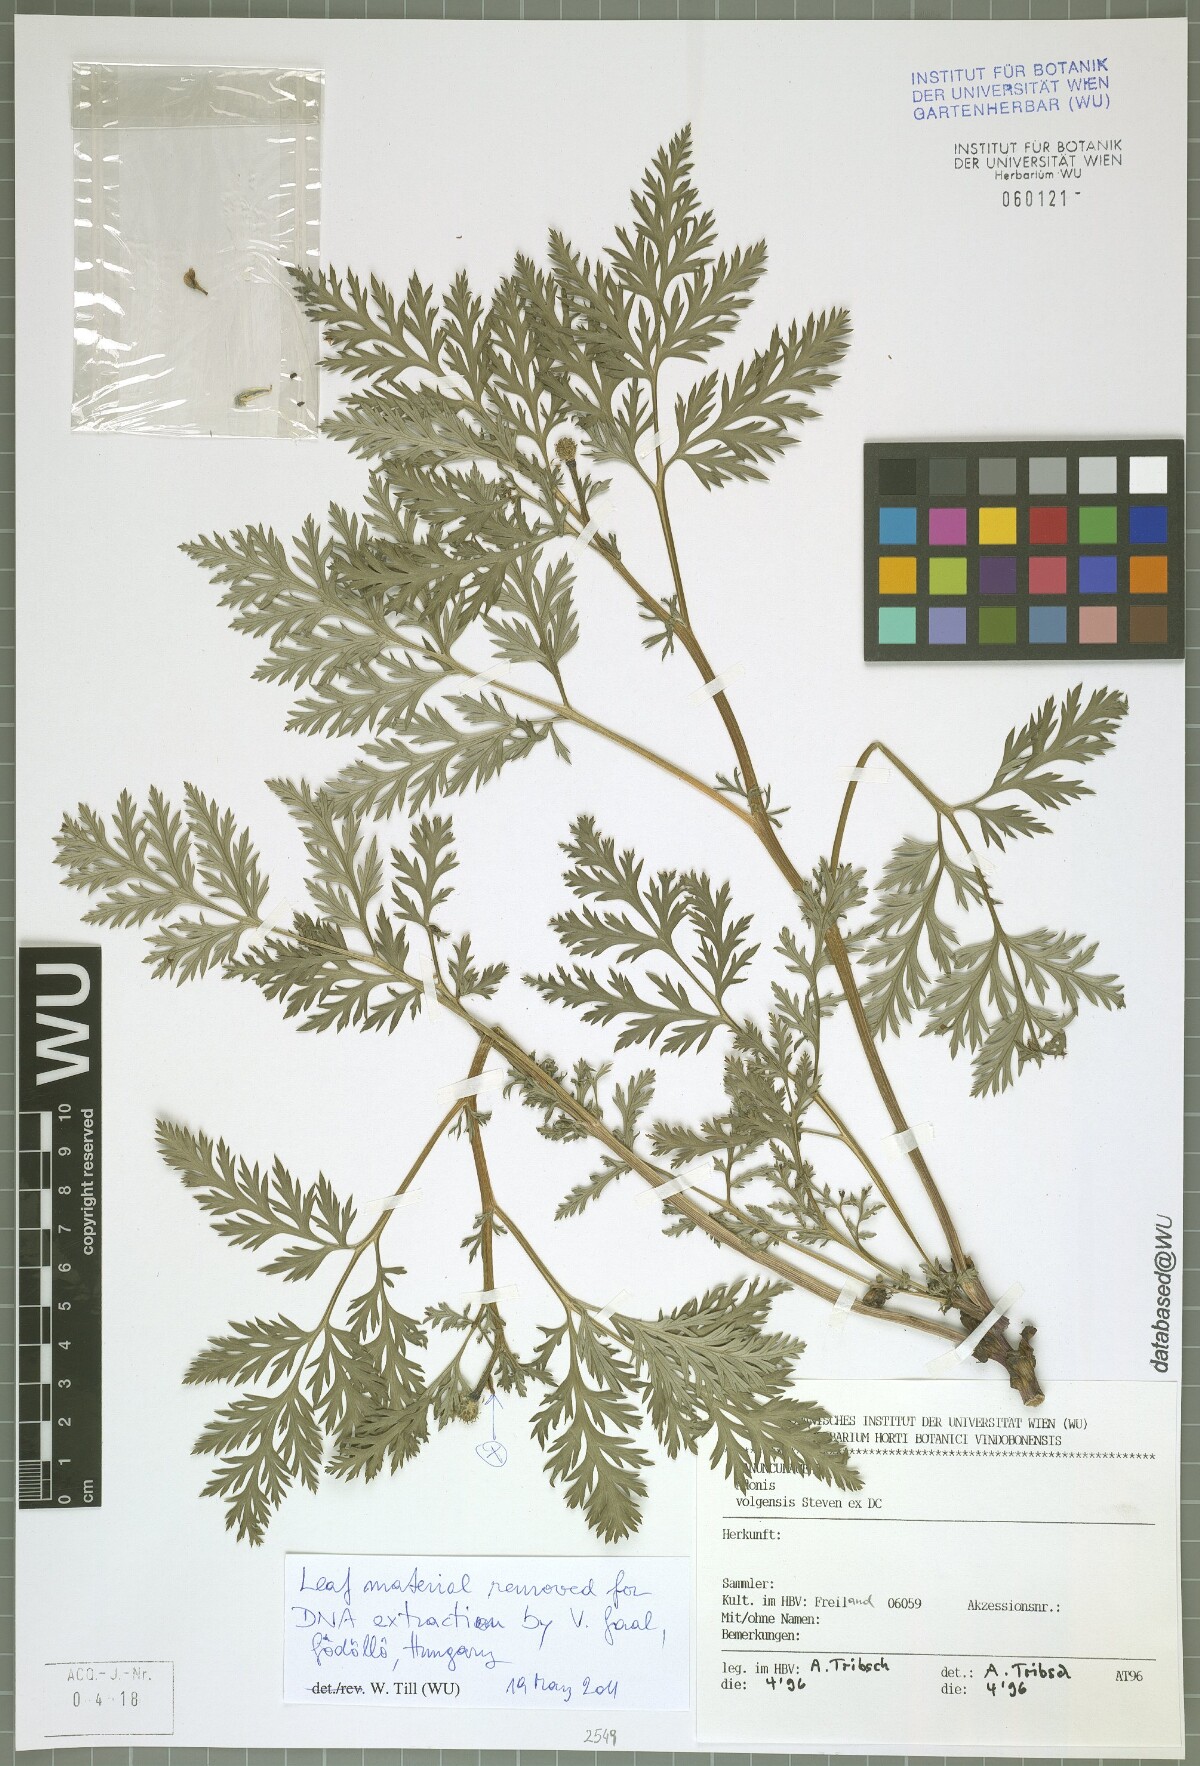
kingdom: Plantae
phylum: Tracheophyta
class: Magnoliopsida
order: Ranunculales
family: Ranunculaceae
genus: Adonis
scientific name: Adonis volgensis
